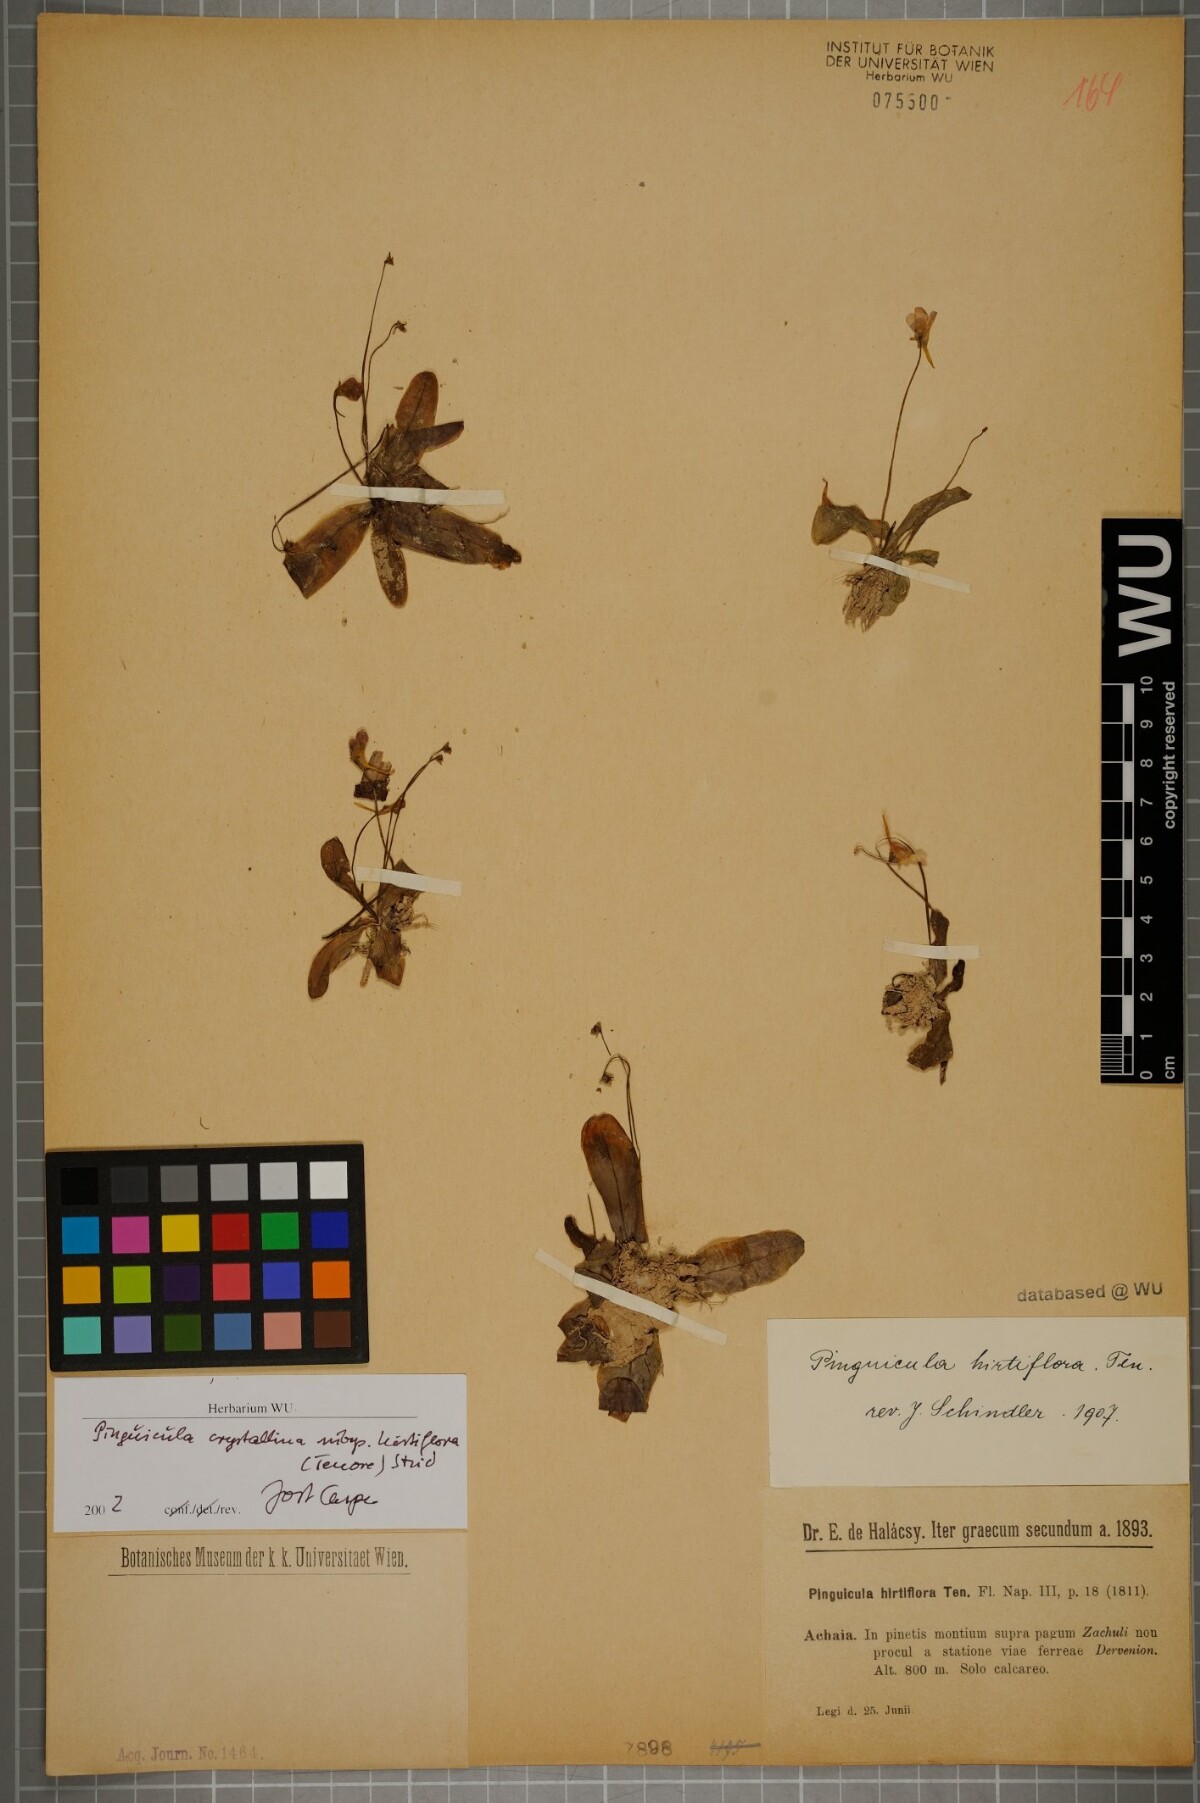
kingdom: Plantae
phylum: Tracheophyta
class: Magnoliopsida
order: Lamiales
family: Lentibulariaceae
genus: Pinguicula
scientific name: Pinguicula crystallina
